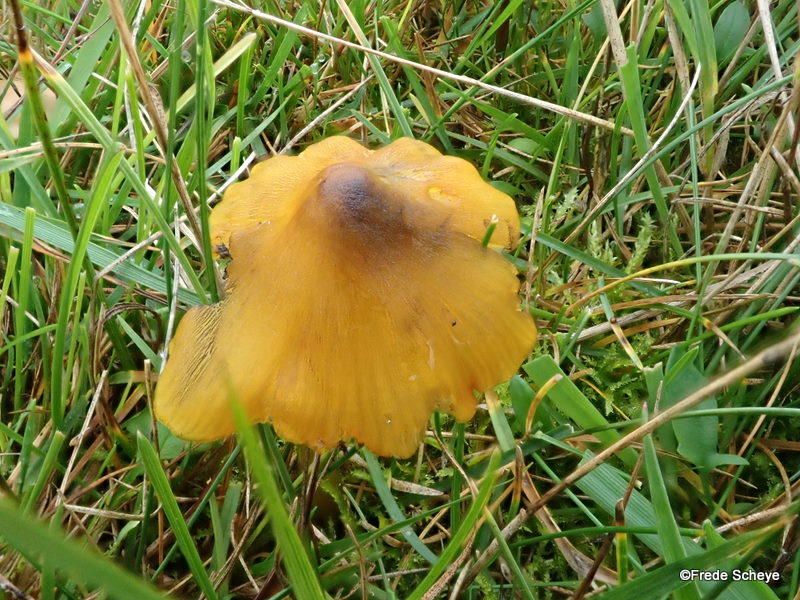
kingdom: Fungi
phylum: Basidiomycota
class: Agaricomycetes
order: Agaricales
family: Hygrophoraceae
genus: Hygrocybe
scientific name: Hygrocybe conica
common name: kegle-vokshat
